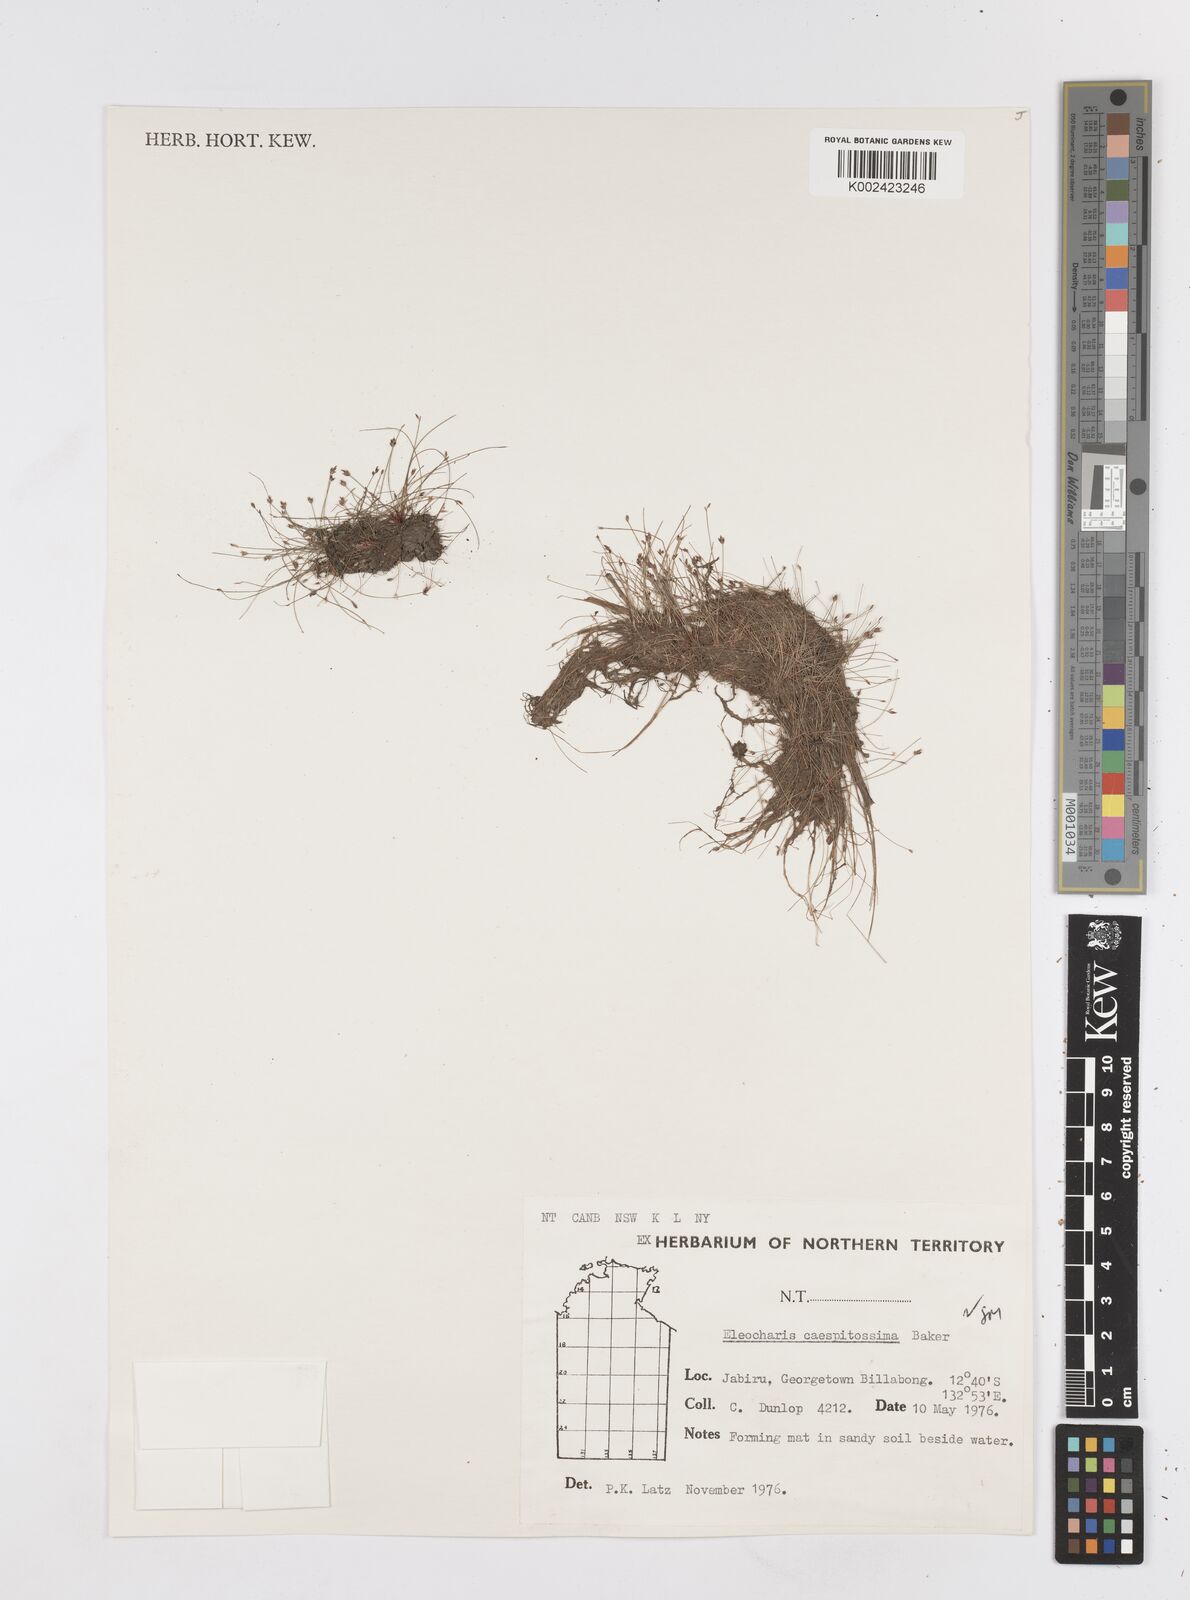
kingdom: Plantae
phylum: Tracheophyta
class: Liliopsida
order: Poales
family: Cyperaceae
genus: Eleocharis
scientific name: Eleocharis caespitosissima
